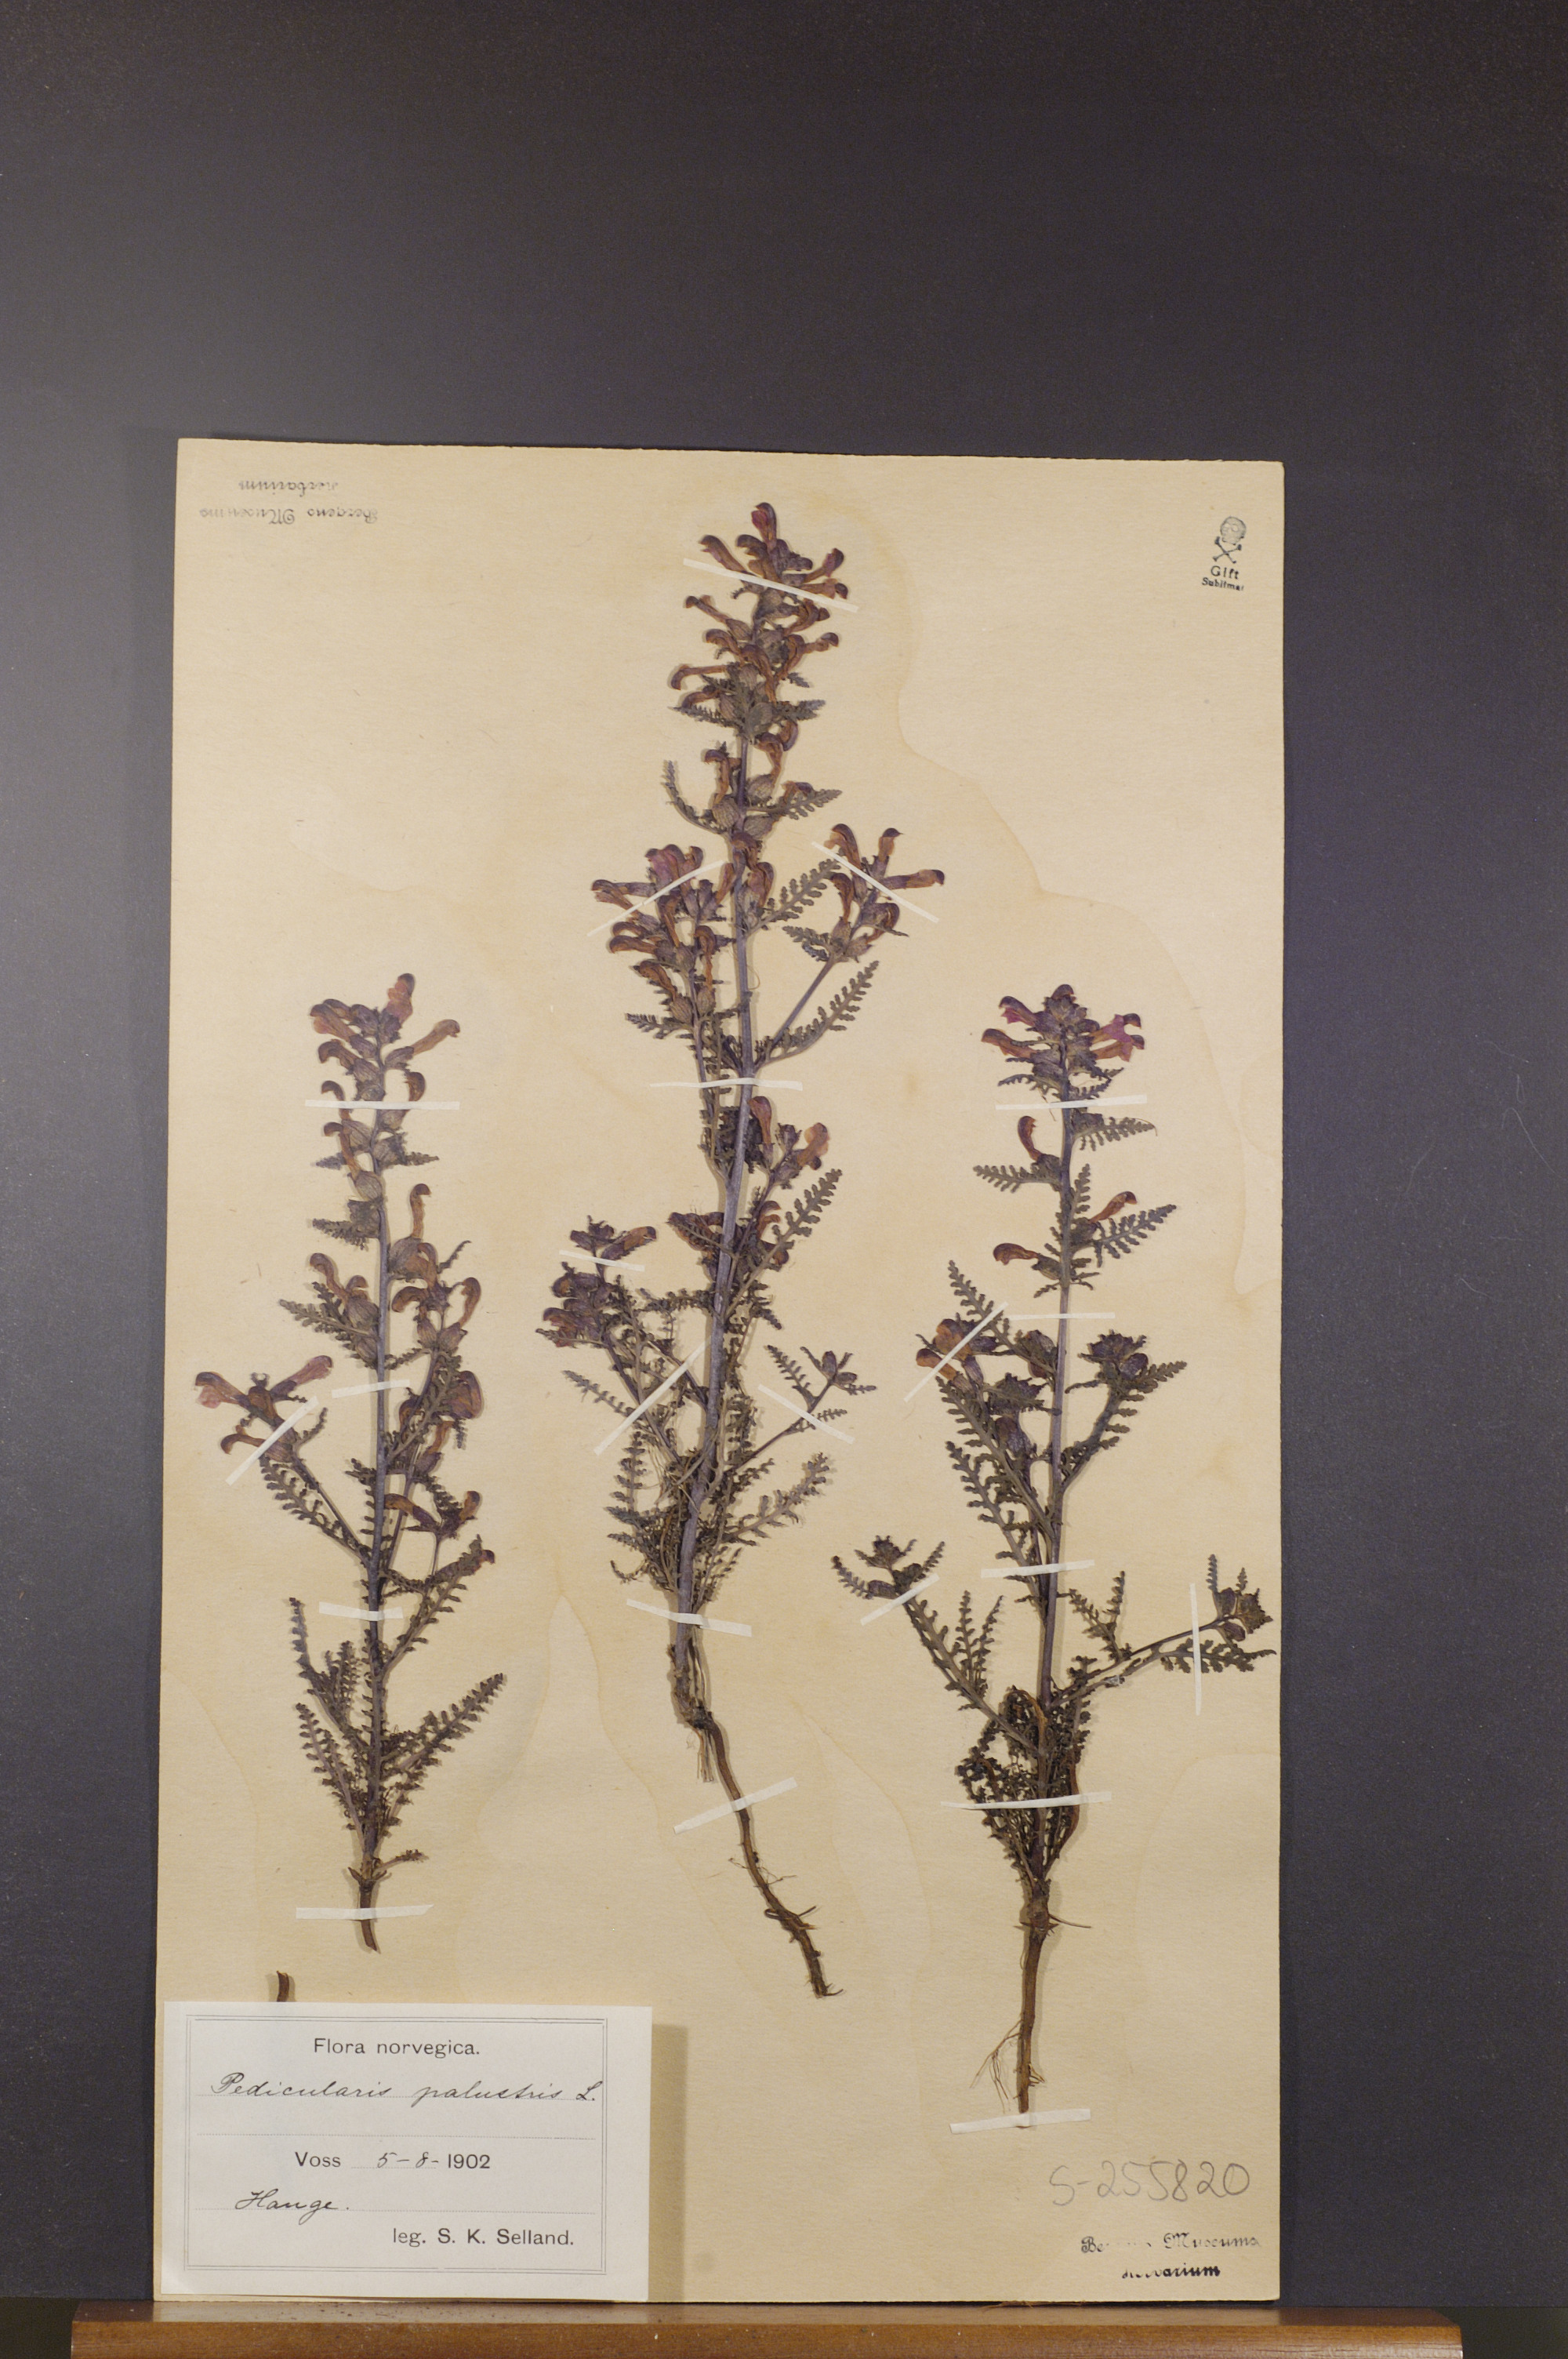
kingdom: Plantae
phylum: Tracheophyta
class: Magnoliopsida
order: Lamiales
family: Orobanchaceae
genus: Pedicularis
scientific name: Pedicularis palustris
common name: Marsh lousewort
